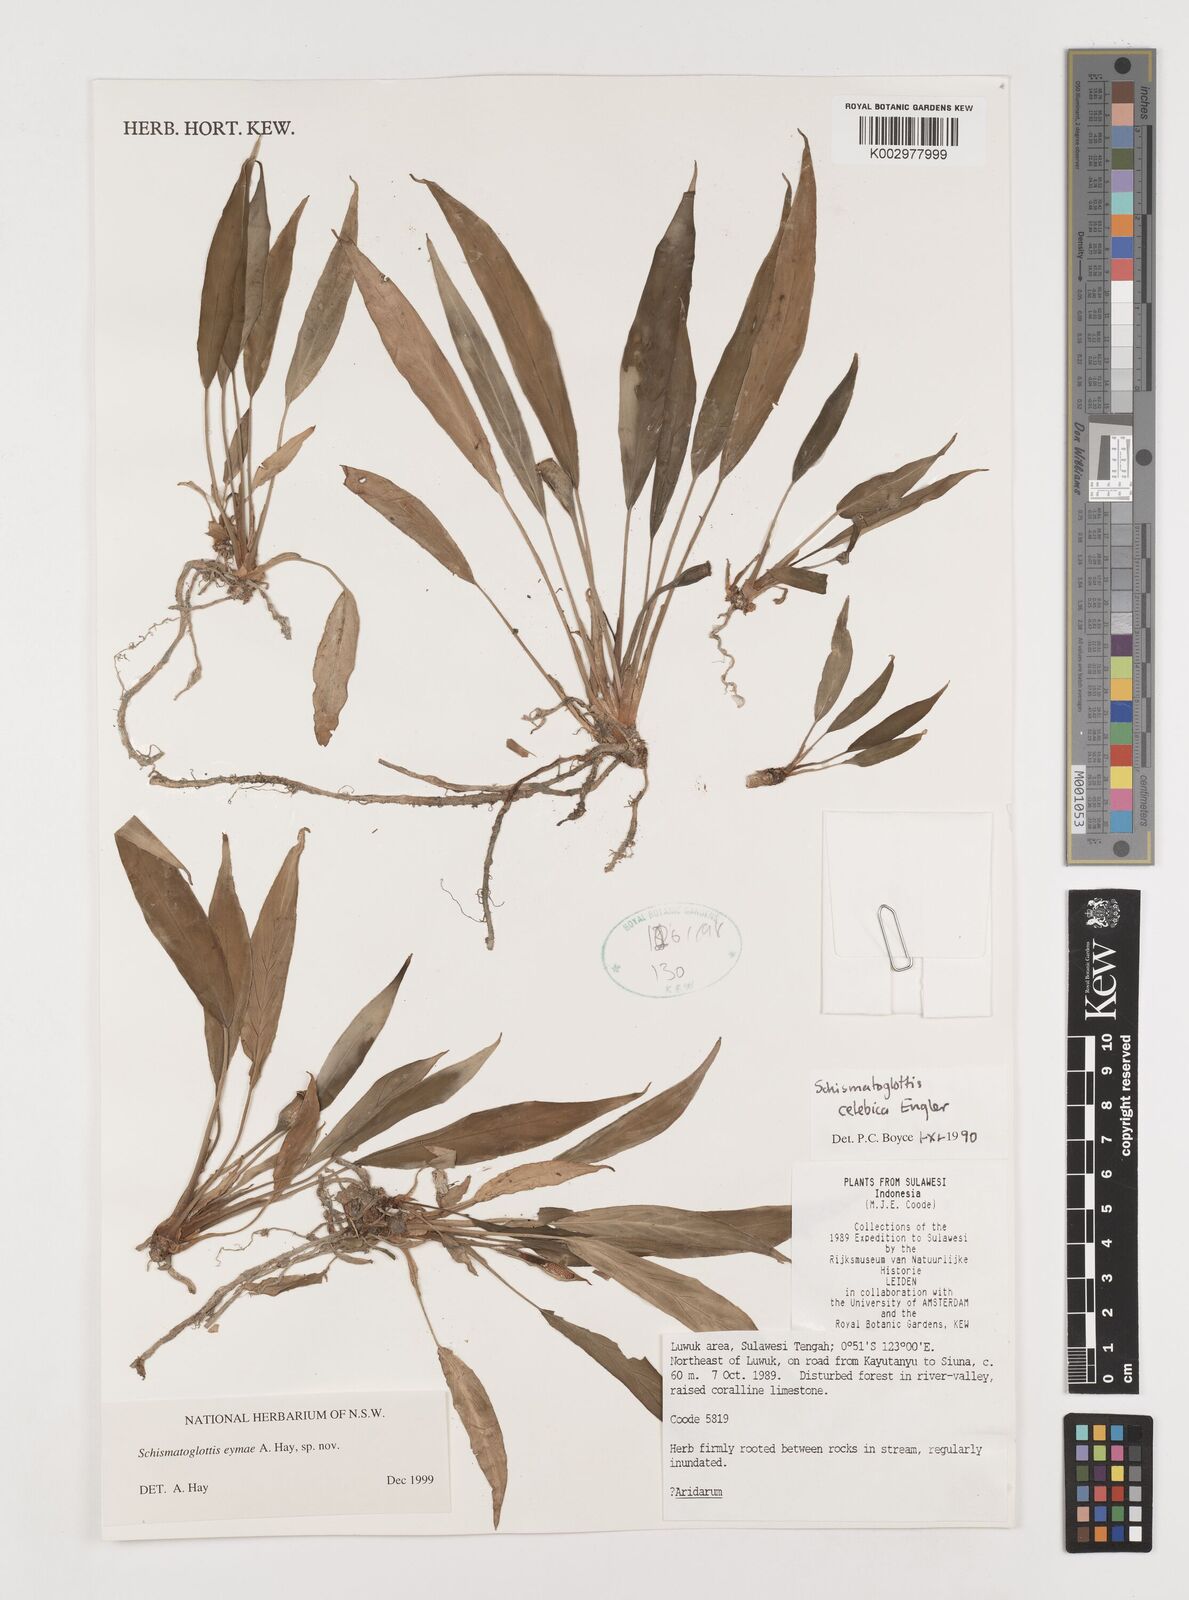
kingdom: Plantae
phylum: Tracheophyta
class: Liliopsida
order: Alismatales
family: Araceae
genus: Schismatoglottis
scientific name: Schismatoglottis eymae
